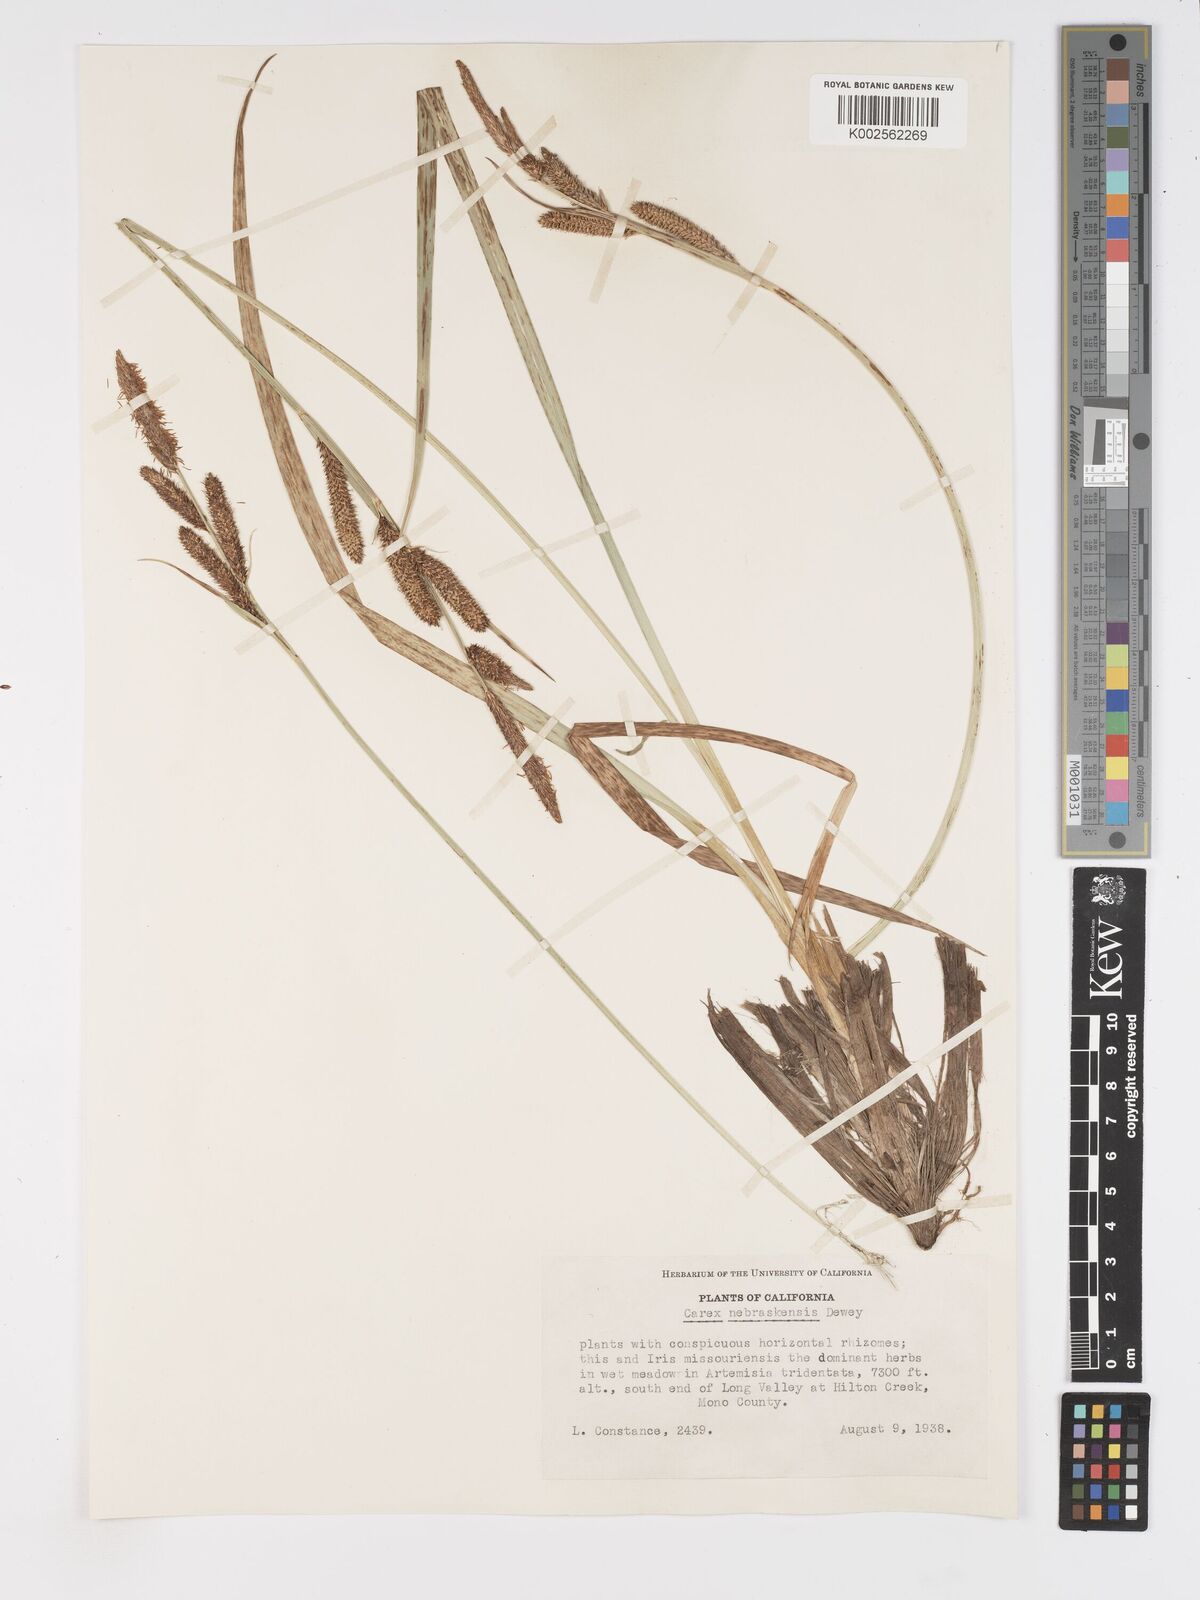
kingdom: Plantae
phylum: Tracheophyta
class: Liliopsida
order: Poales
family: Cyperaceae
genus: Carex
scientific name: Carex nebrascensis
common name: Nebraska sedge
